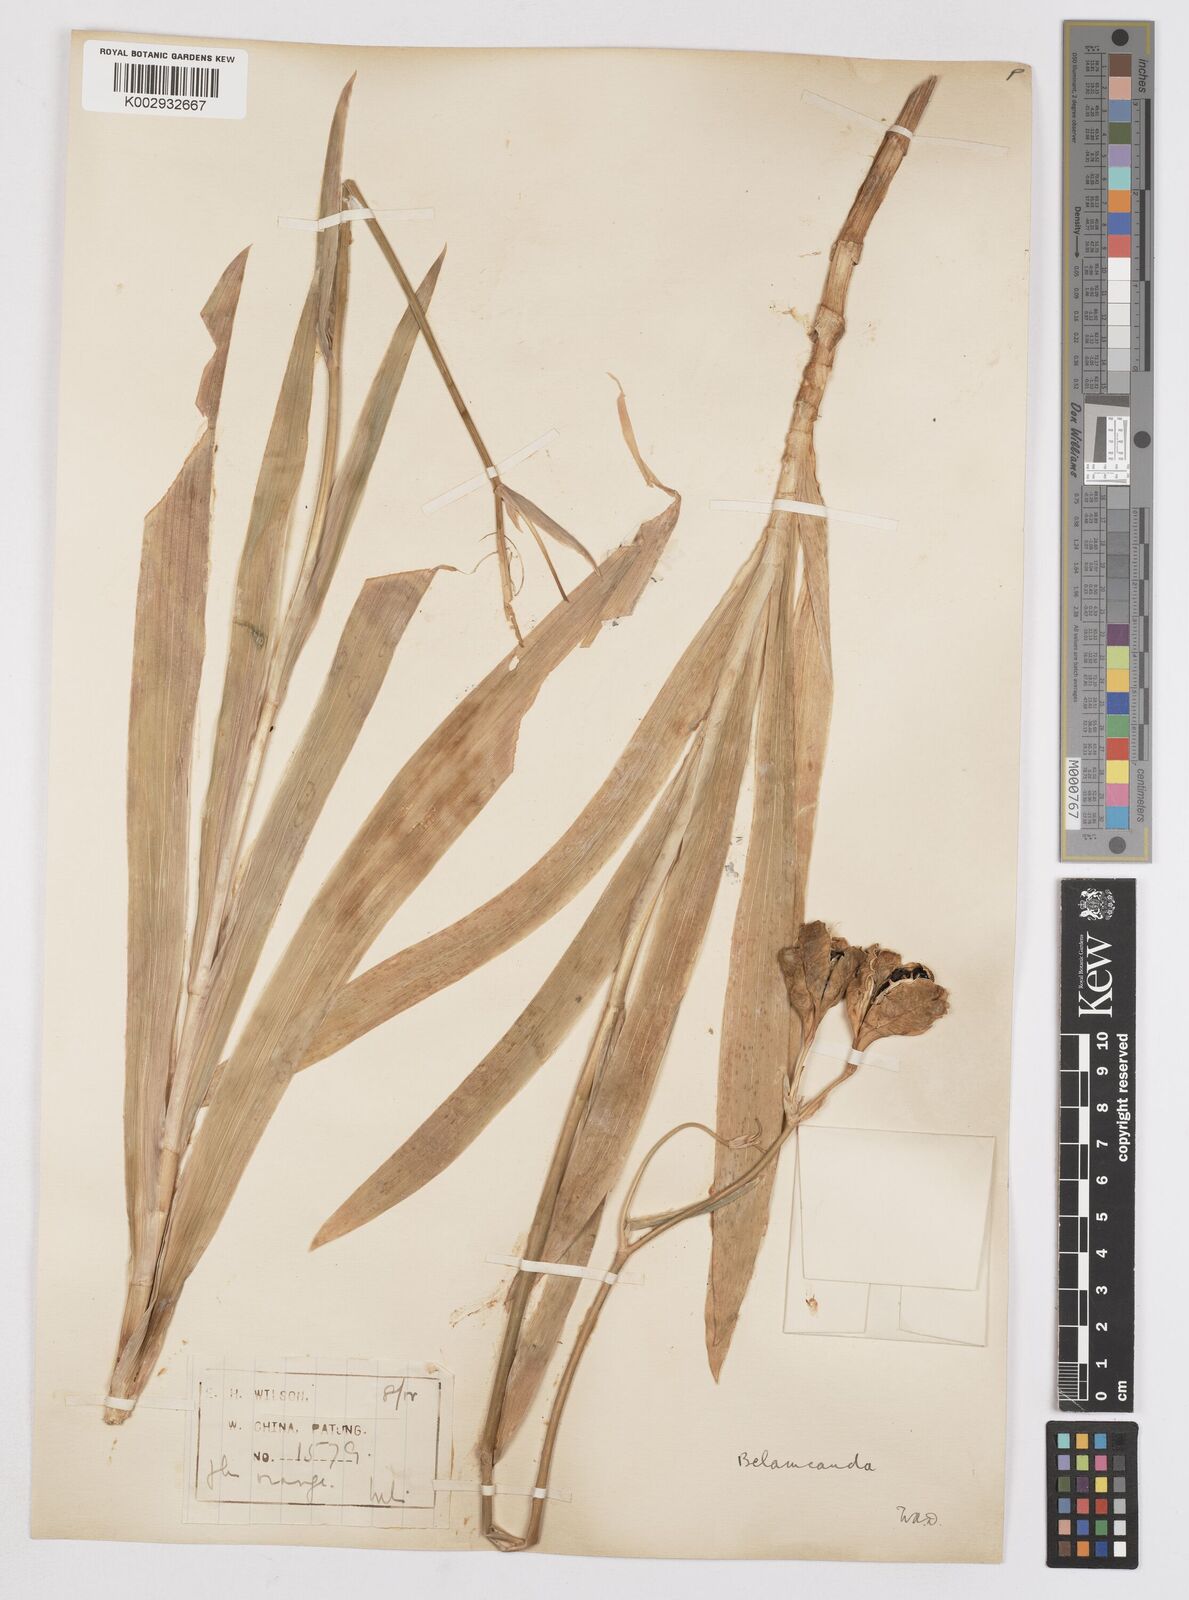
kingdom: Plantae
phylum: Tracheophyta
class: Liliopsida
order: Asparagales
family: Iridaceae
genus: Iris
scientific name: Iris
